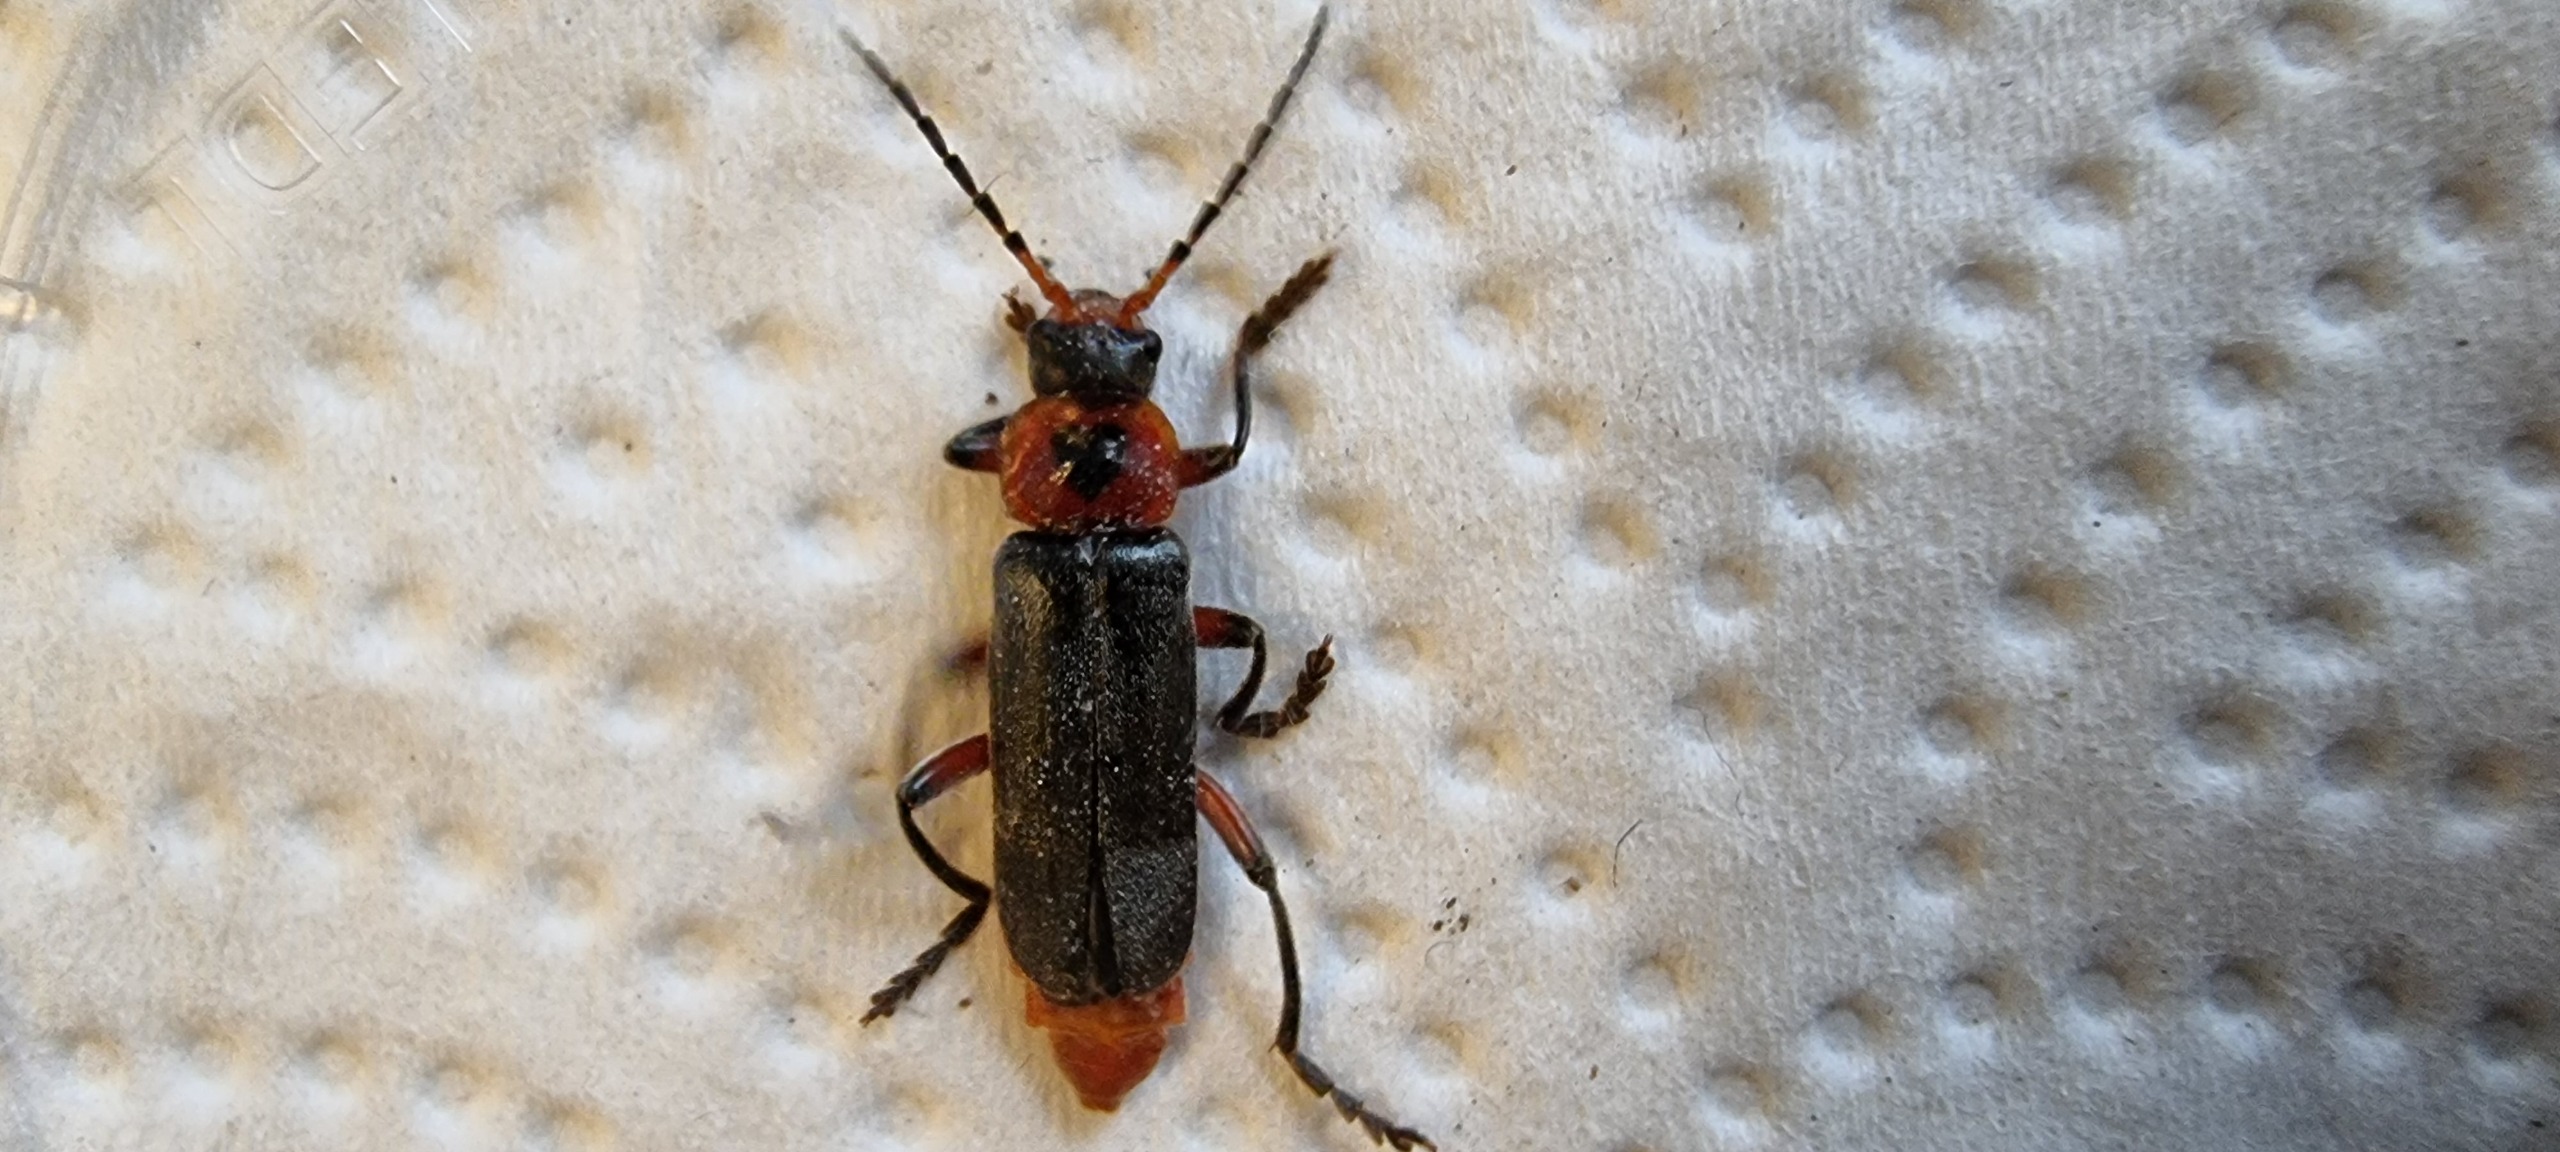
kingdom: Animalia
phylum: Arthropoda
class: Insecta
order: Coleoptera
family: Cantharidae
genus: Cantharis
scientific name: Cantharis rustica
